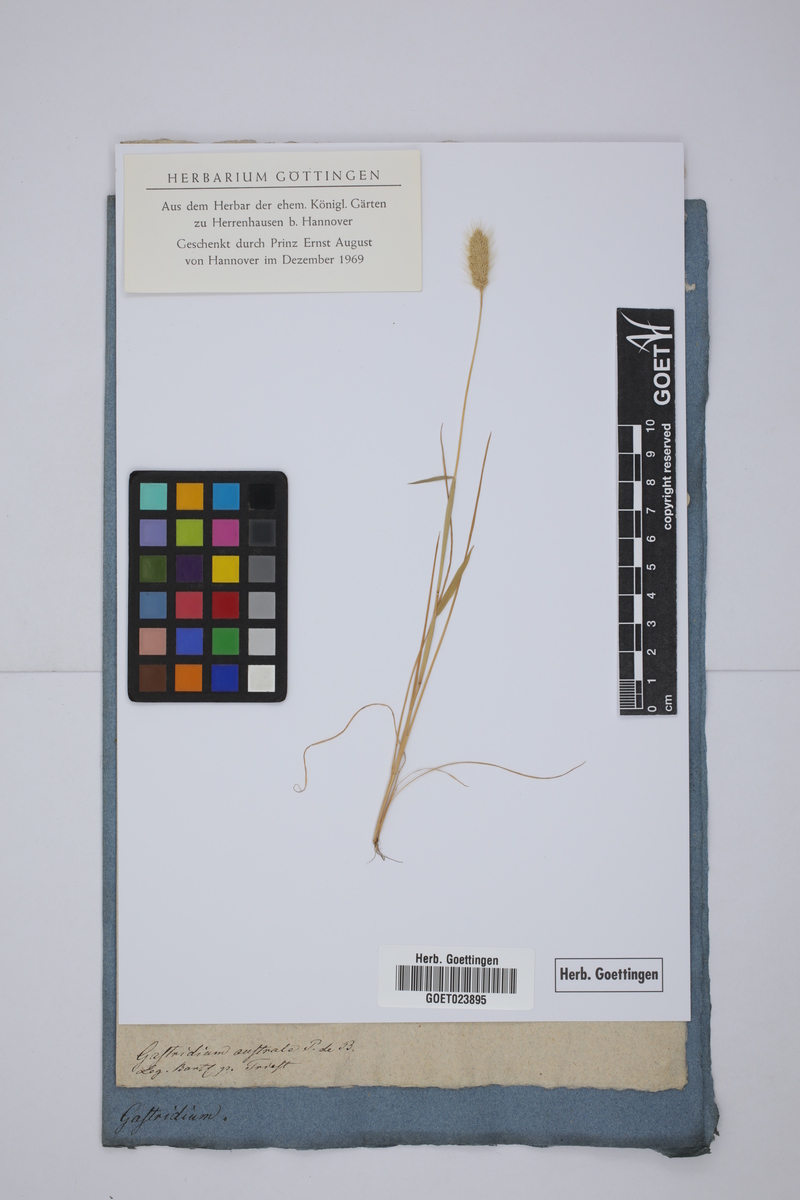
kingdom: Plantae
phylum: Tracheophyta
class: Liliopsida
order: Poales
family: Poaceae
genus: Gastridium
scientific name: Gastridium ventricosum
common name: Nit-grass
